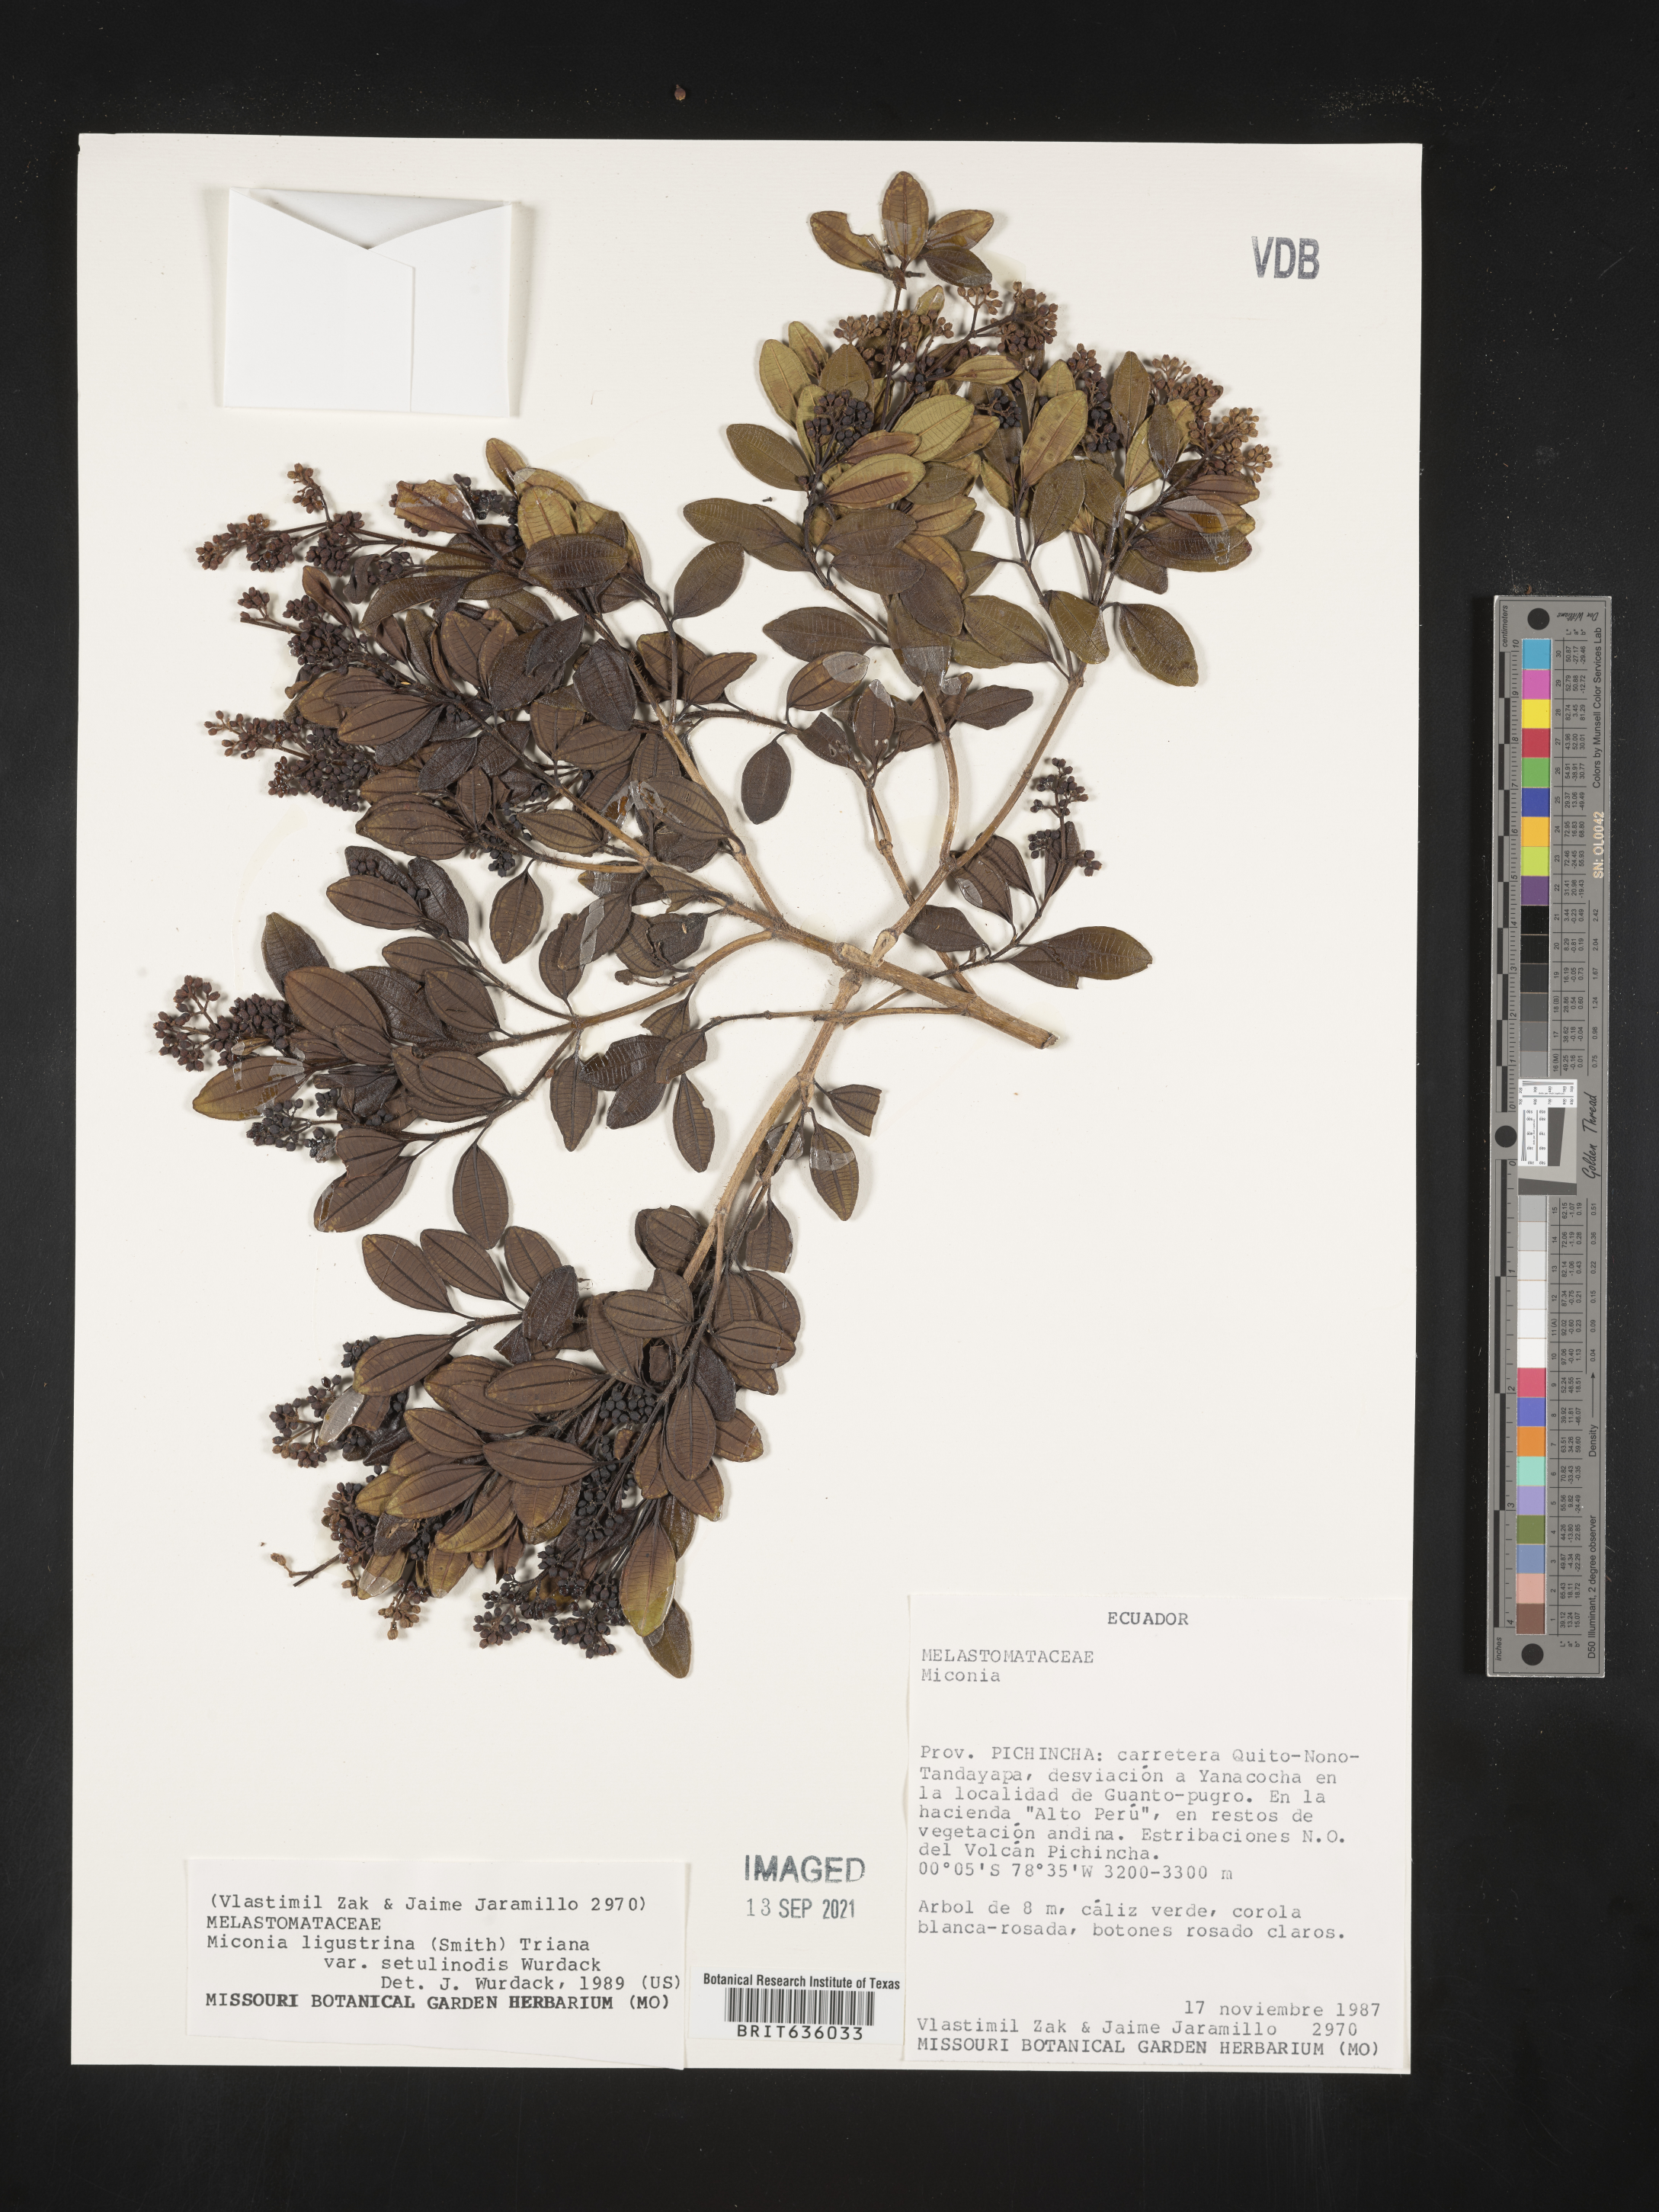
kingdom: Plantae
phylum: Tracheophyta
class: Magnoliopsida
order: Myrtales
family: Melastomataceae
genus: Miconia
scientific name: Miconia
